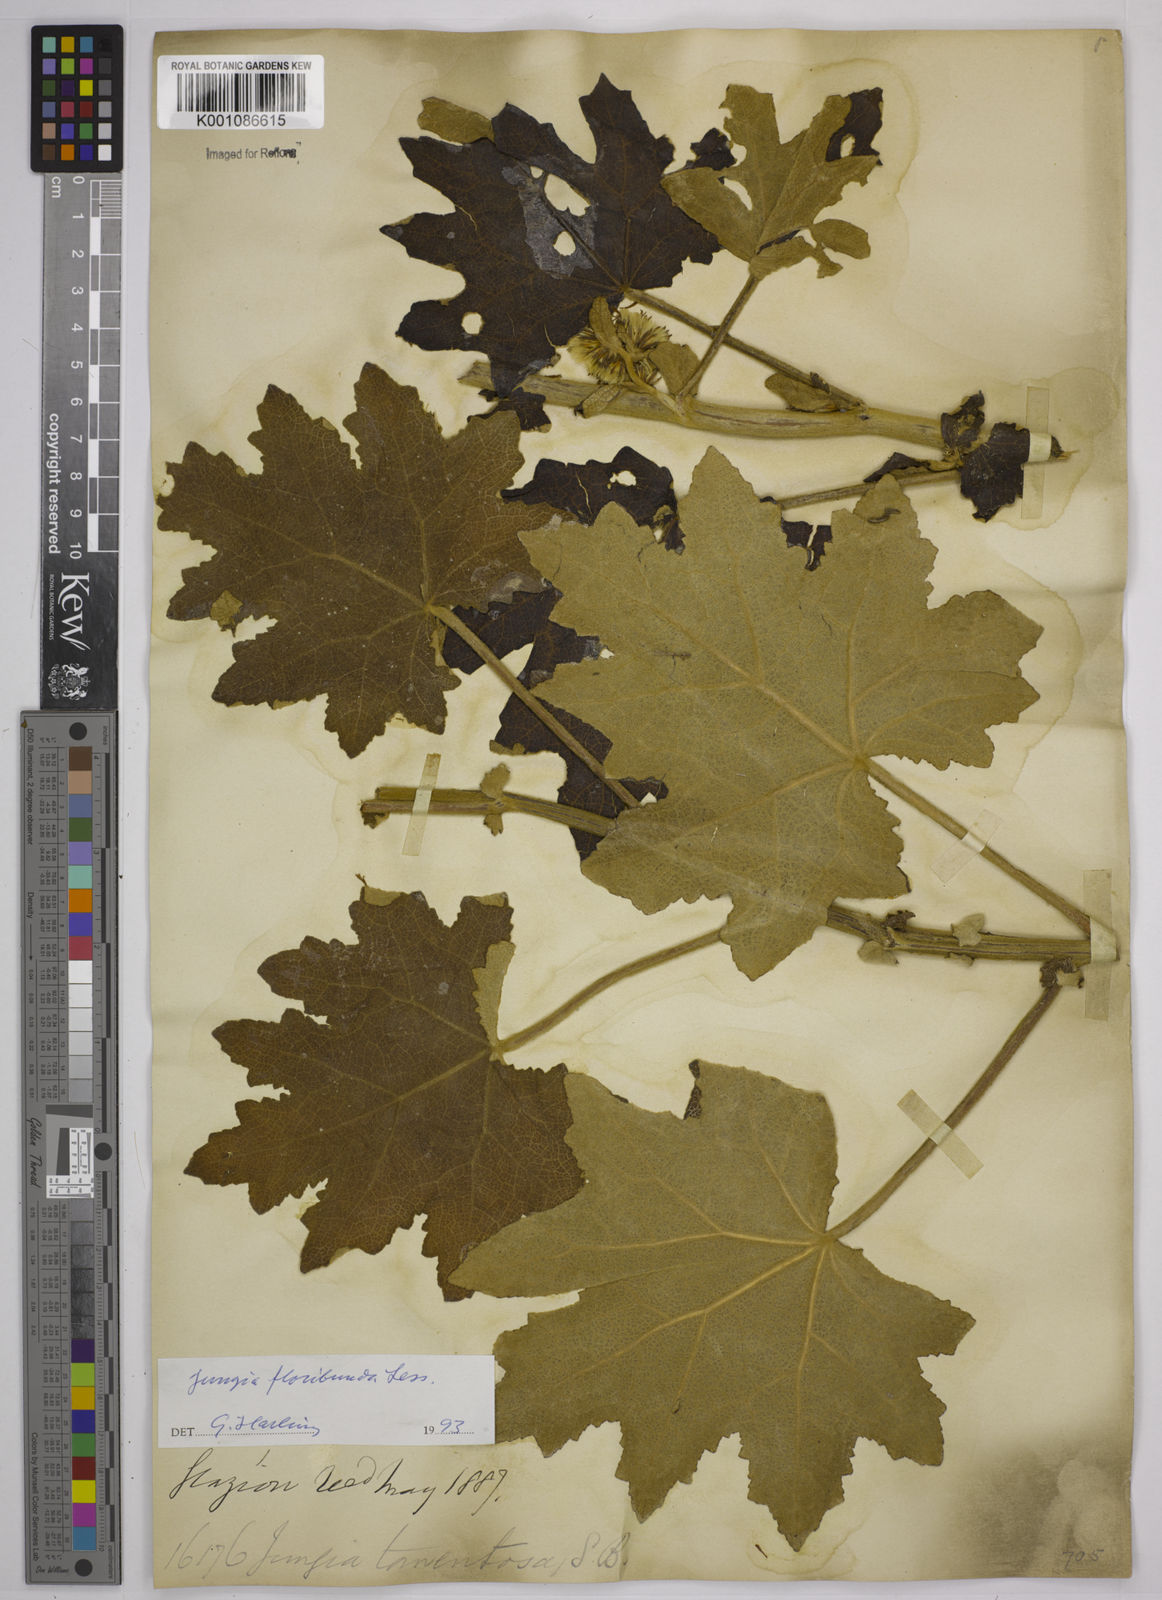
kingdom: Plantae
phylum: Tracheophyta
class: Magnoliopsida
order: Asterales
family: Asteraceae
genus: Jungia
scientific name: Jungia floribunda
